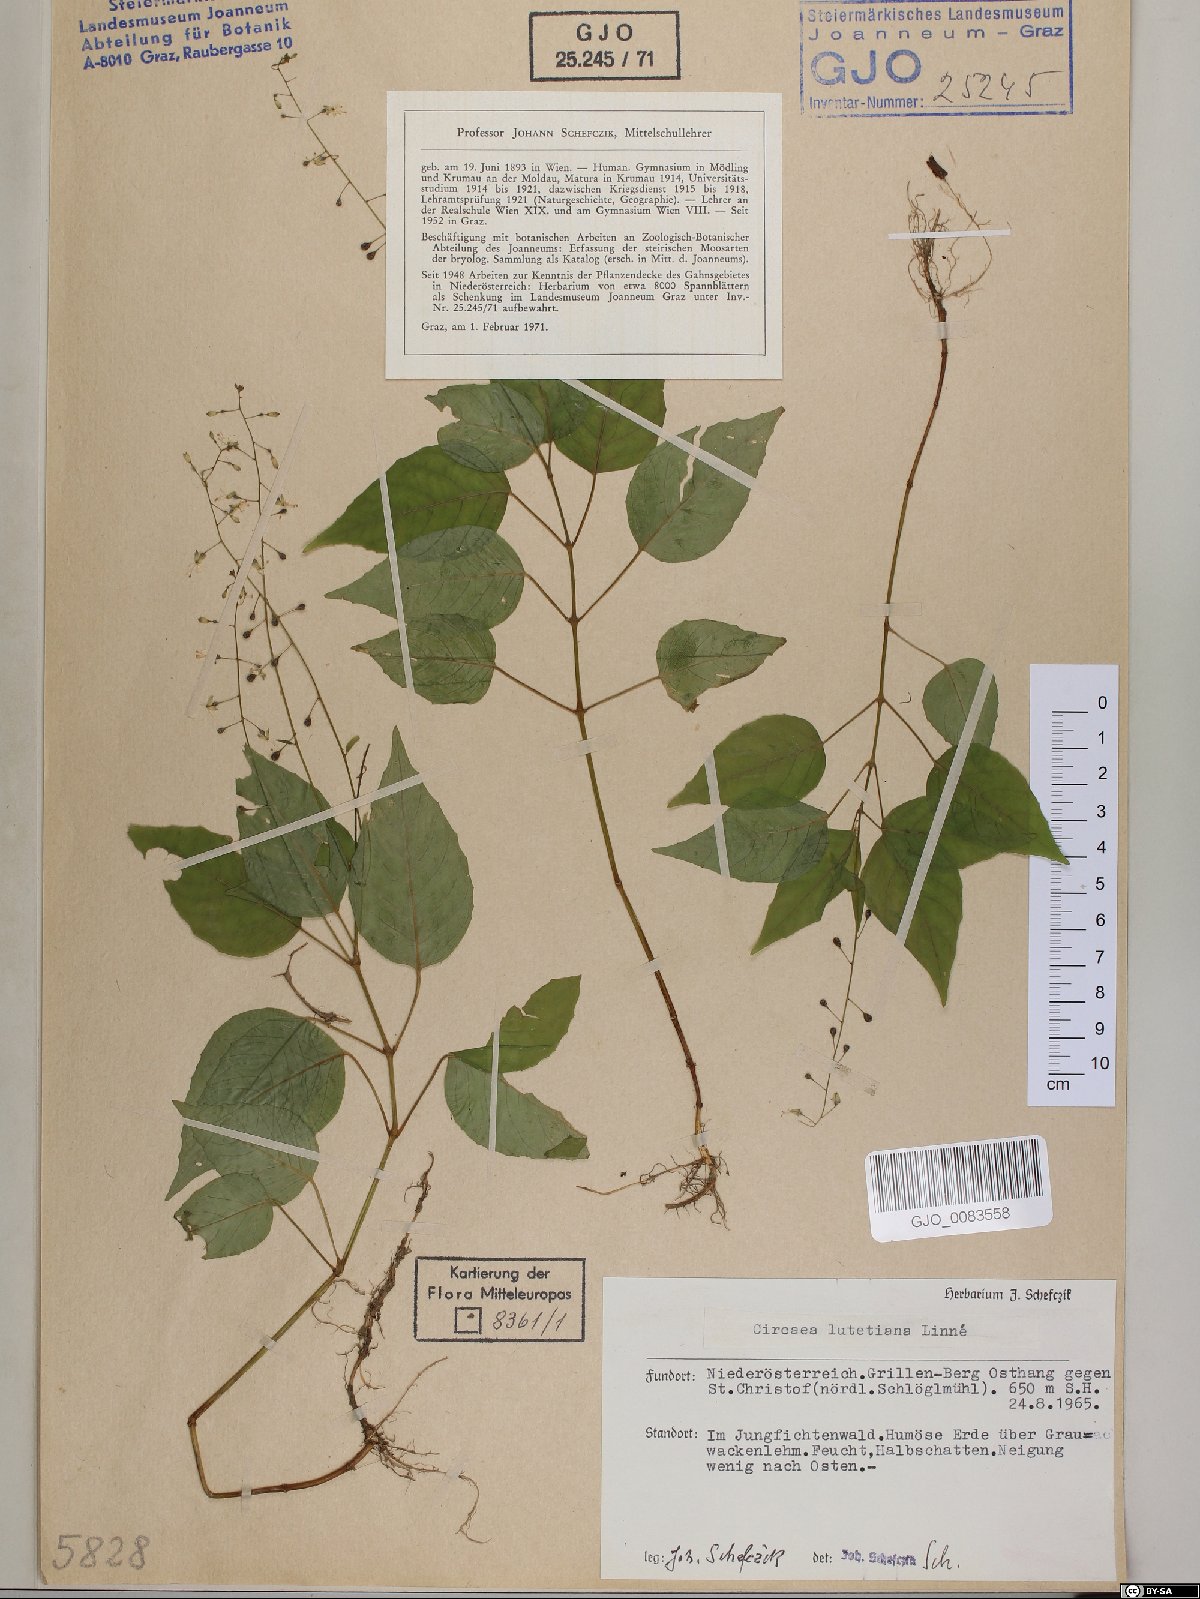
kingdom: Plantae
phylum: Tracheophyta
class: Magnoliopsida
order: Myrtales
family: Onagraceae
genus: Circaea
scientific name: Circaea lutetiana
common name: Enchanter's-nightshade
